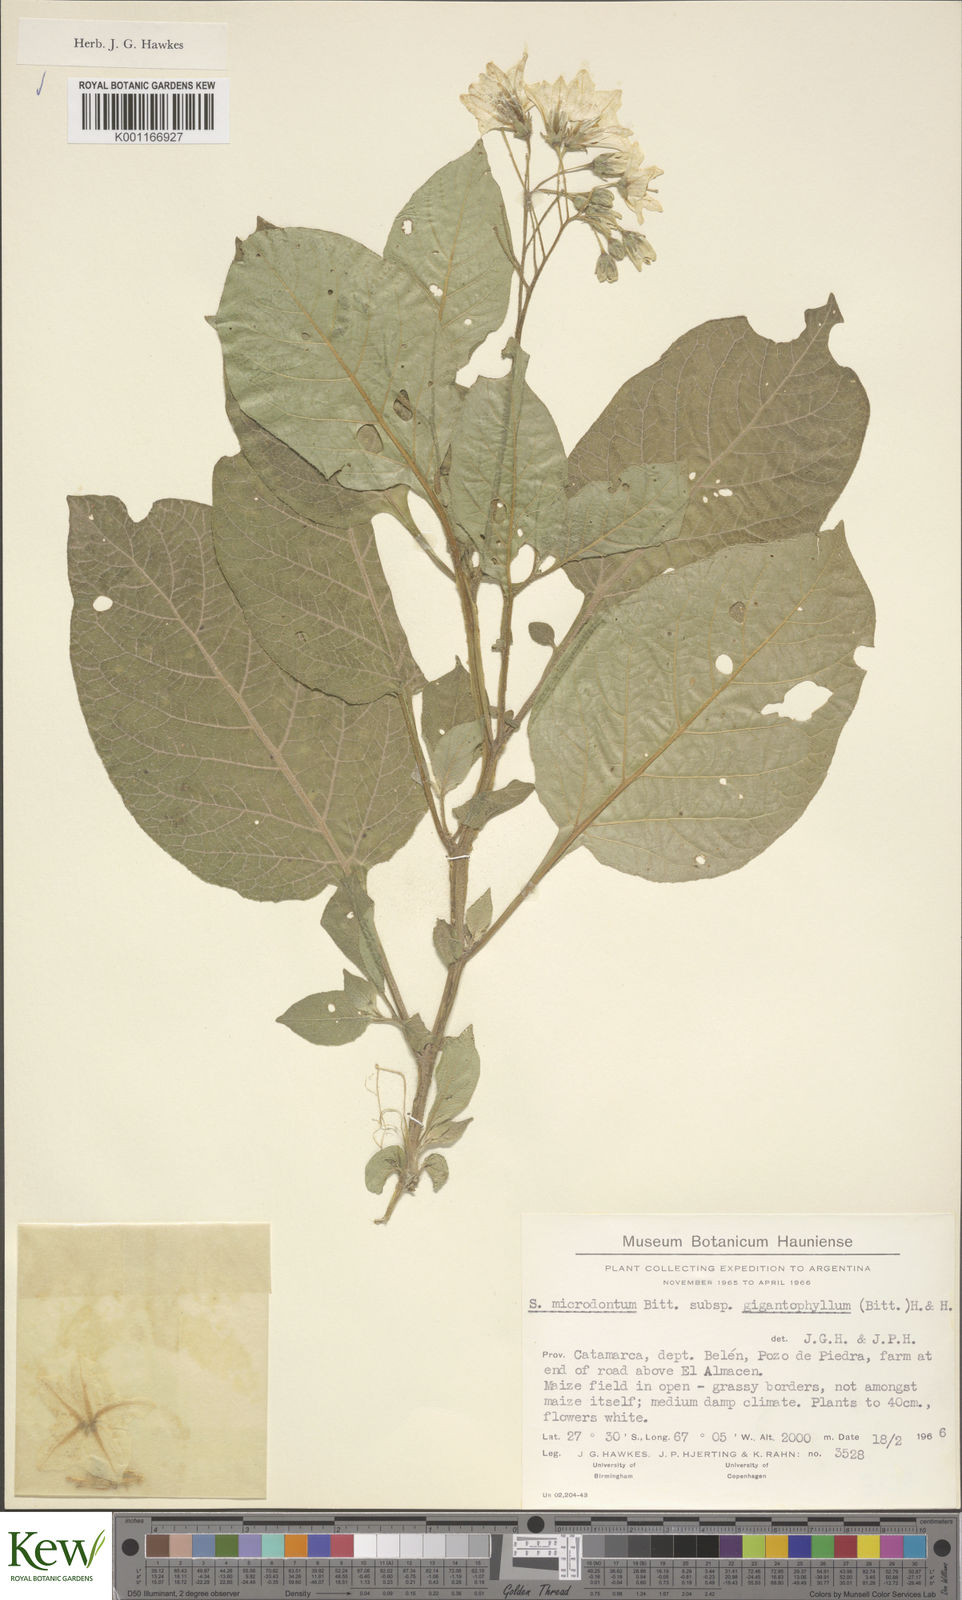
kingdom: Plantae
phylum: Tracheophyta
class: Magnoliopsida
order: Solanales
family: Solanaceae
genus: Solanum
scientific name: Solanum microdontum
